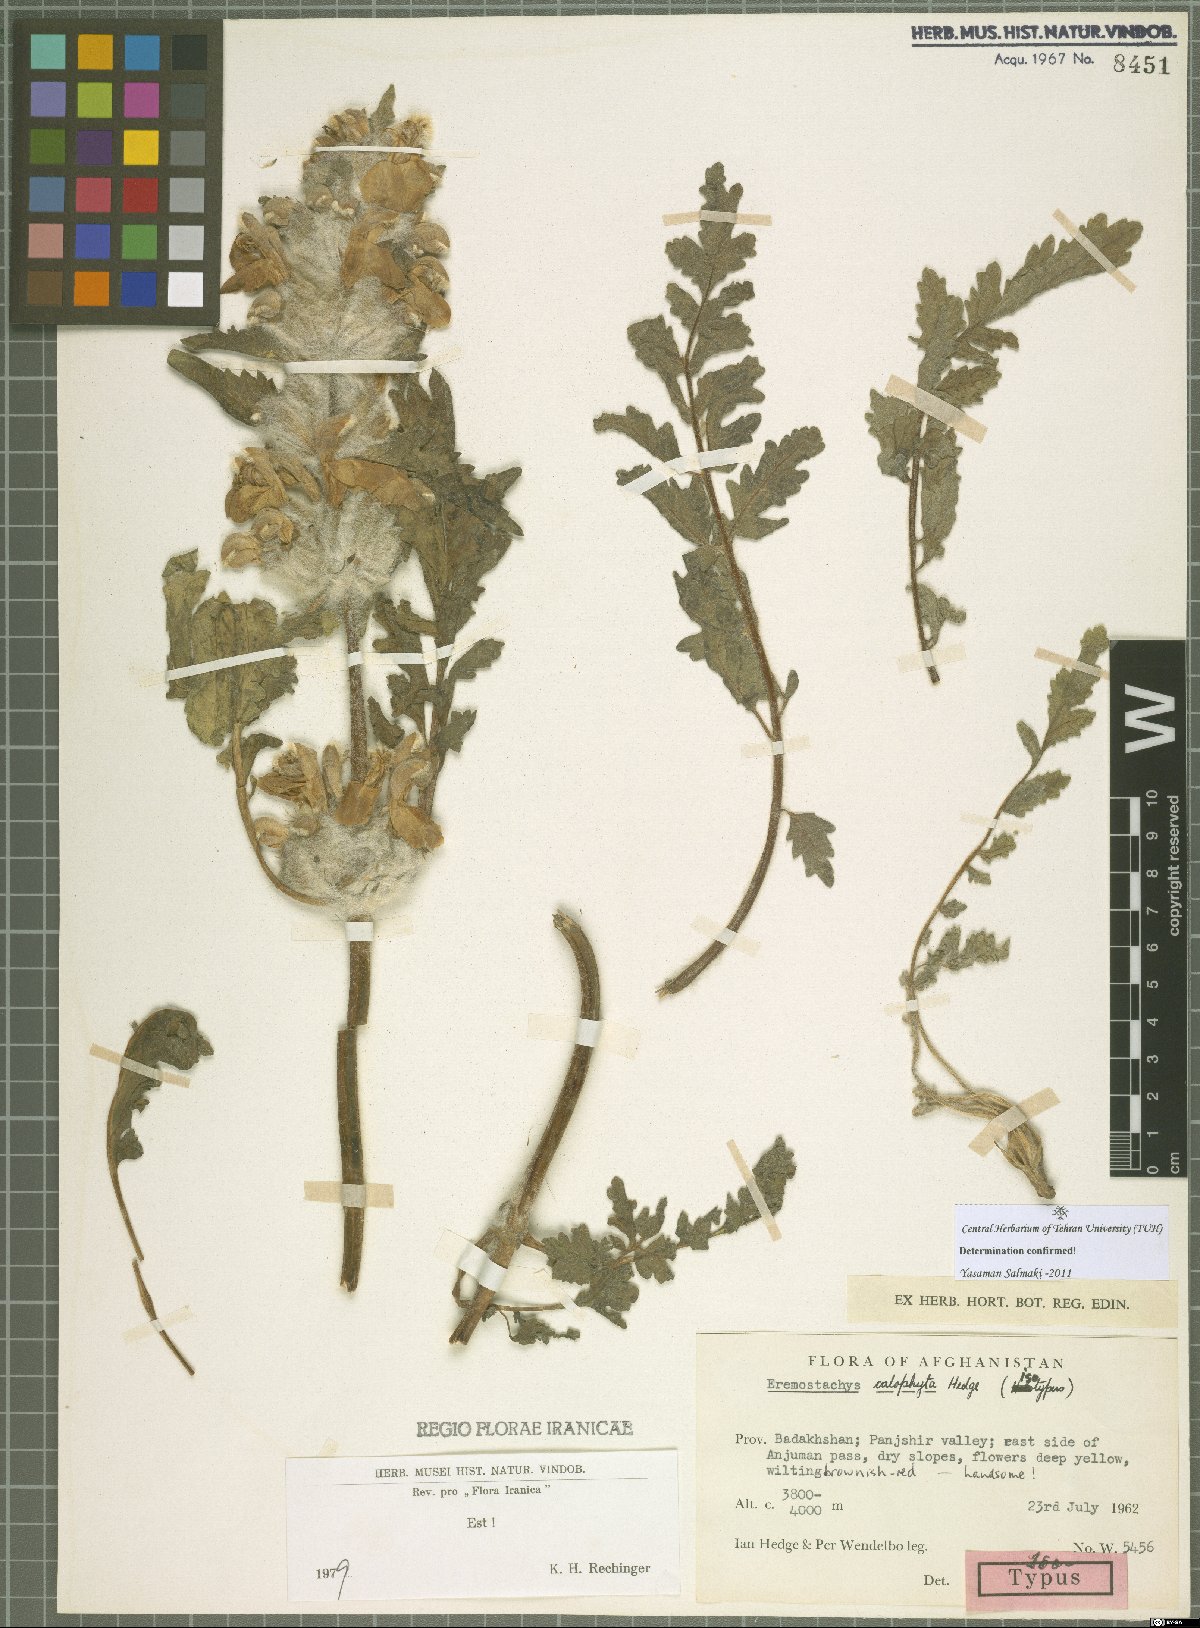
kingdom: Plantae
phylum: Tracheophyta
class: Magnoliopsida
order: Lamiales
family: Lamiaceae
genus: Phlomoides
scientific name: Phlomoides Eremostachys calophyta
